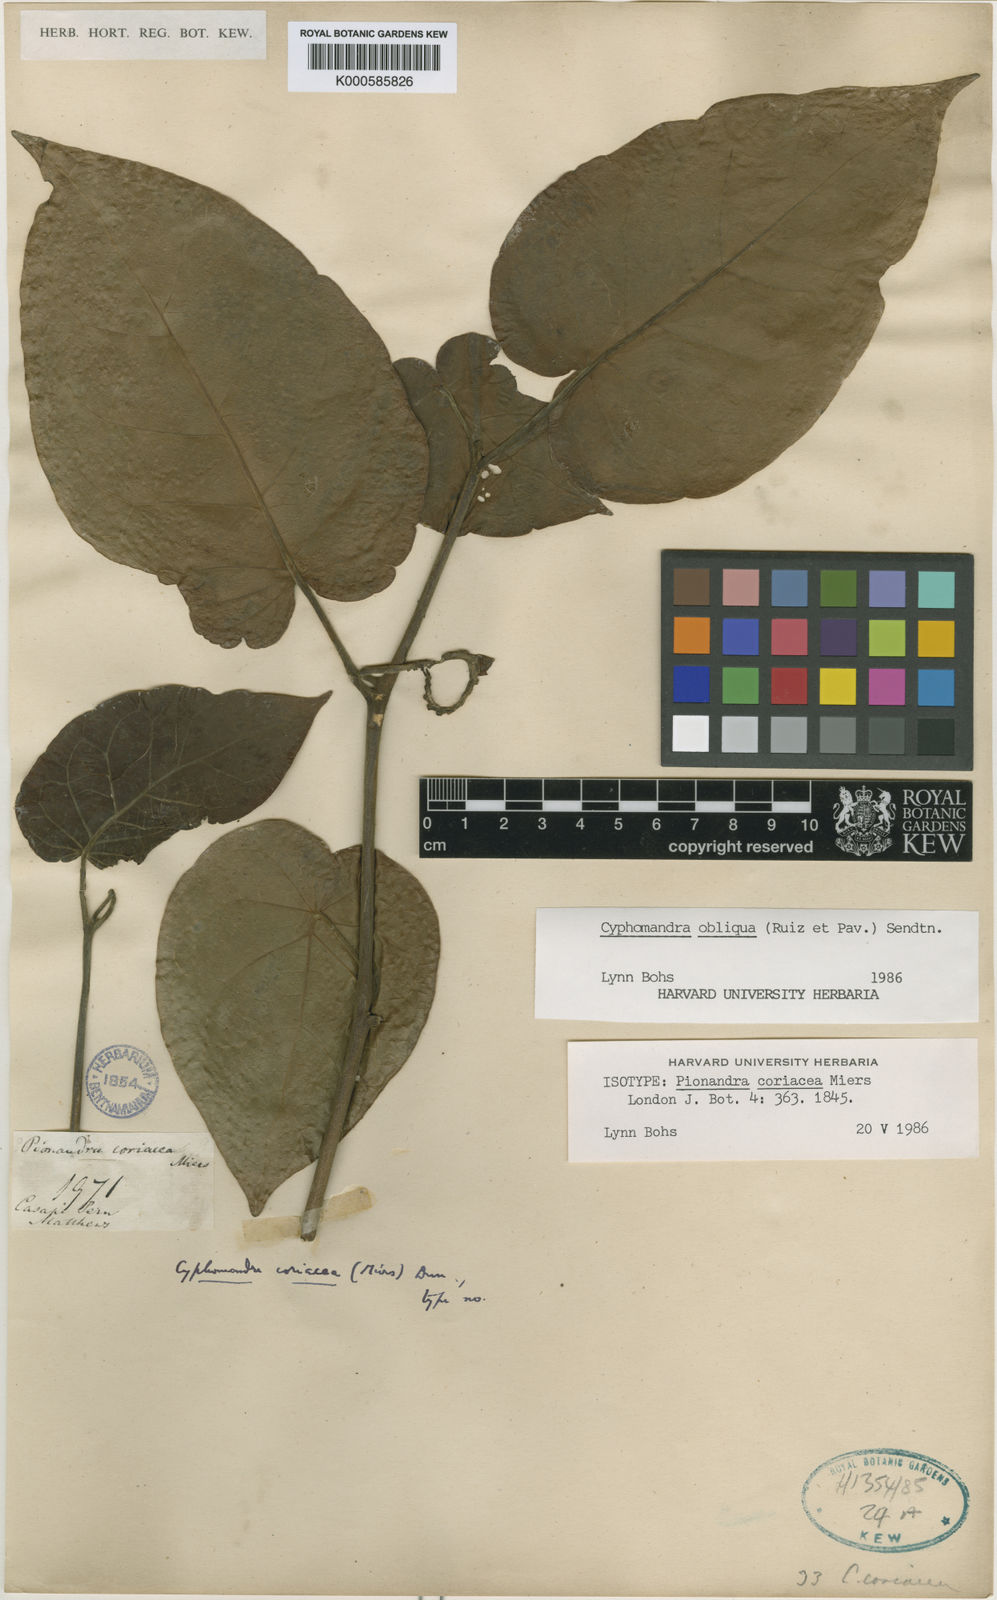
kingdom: Plantae
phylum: Tracheophyta
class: Magnoliopsida
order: Solanales
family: Solanaceae
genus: Solanum
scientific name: Solanum obliquum
